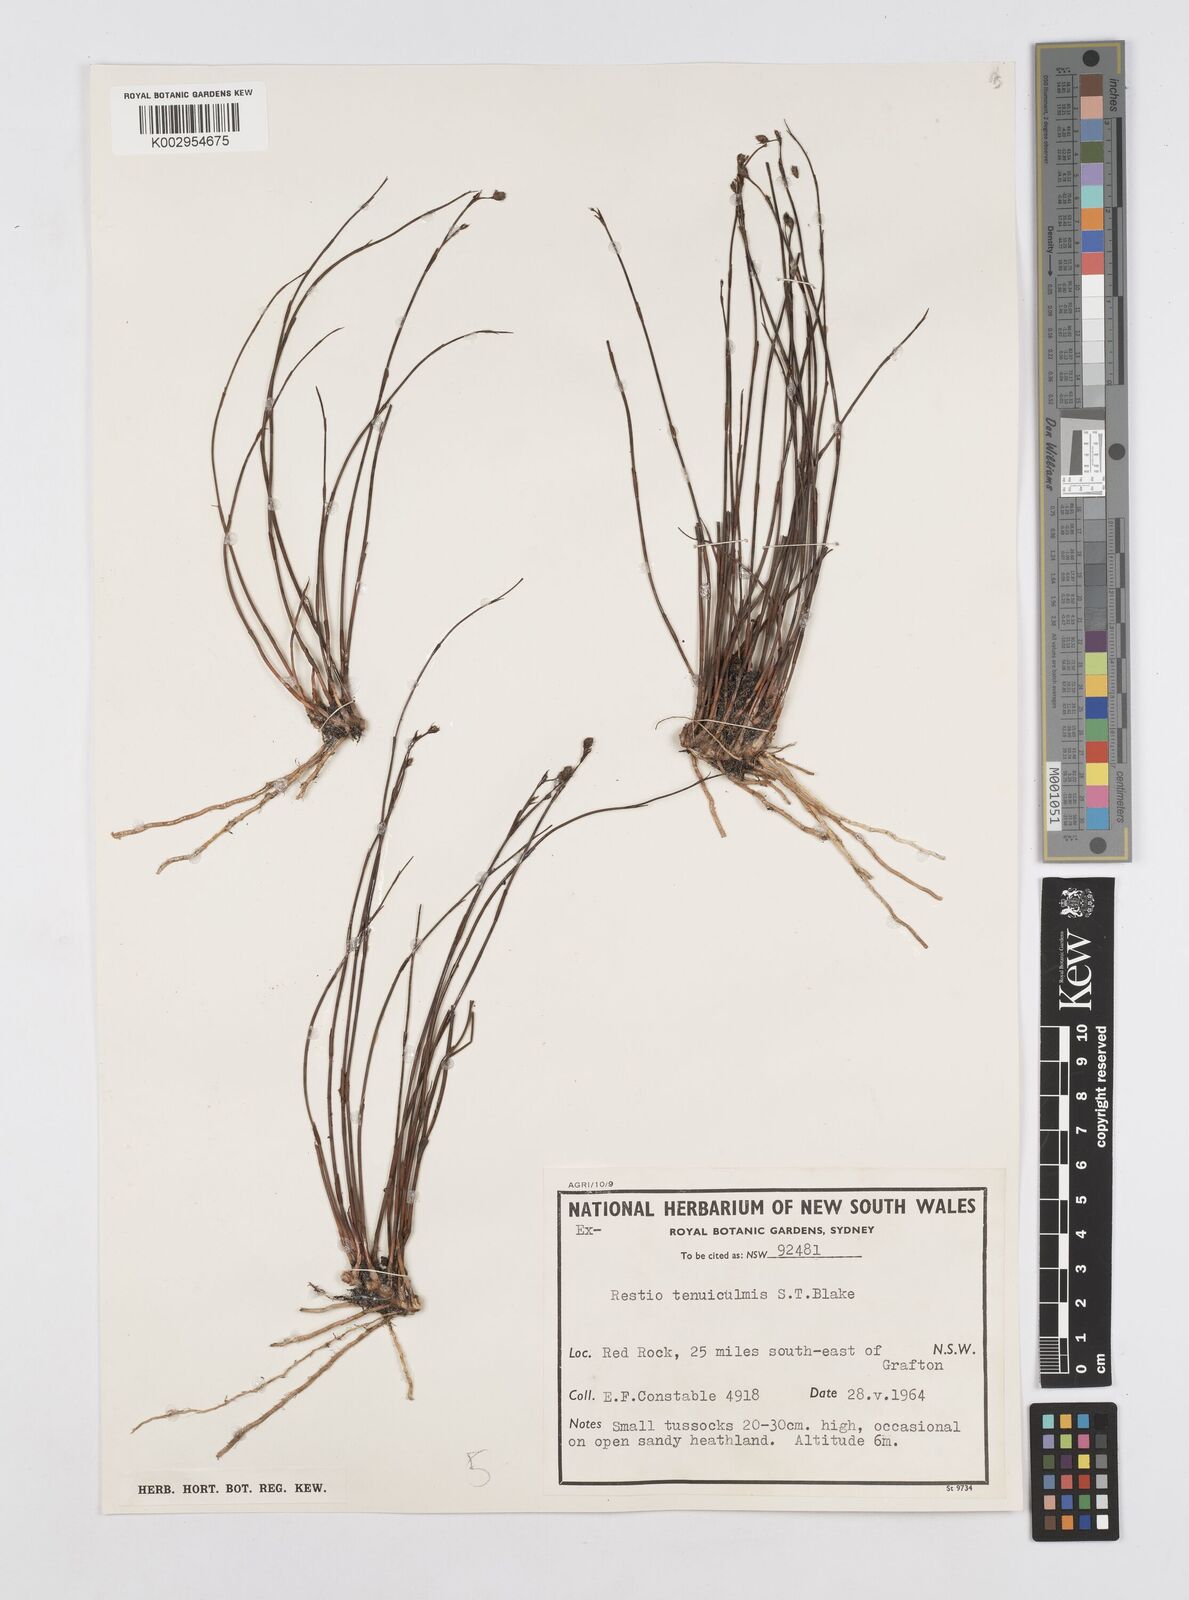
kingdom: Plantae
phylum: Tracheophyta
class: Liliopsida
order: Poales
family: Restionaceae
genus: Baloskion
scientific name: Baloskion tenuiculme
